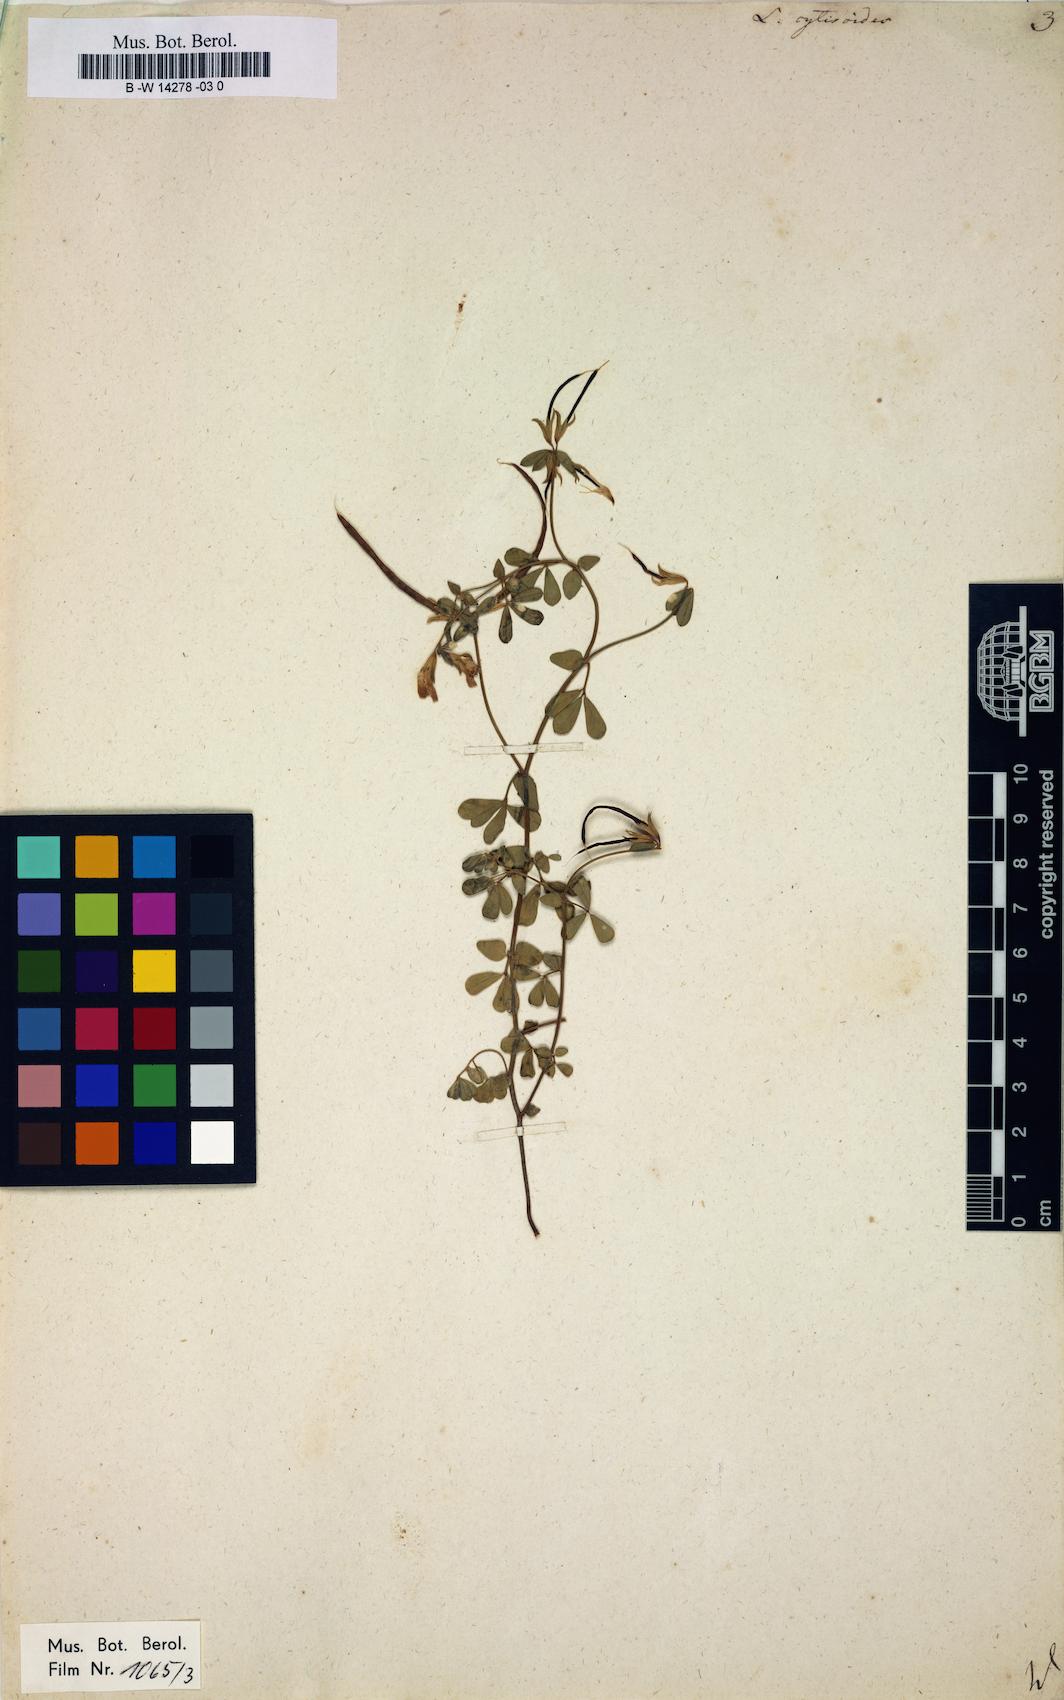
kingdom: Plantae
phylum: Tracheophyta
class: Magnoliopsida
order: Fabales
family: Fabaceae
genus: Lotus
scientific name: Lotus cytisoides
